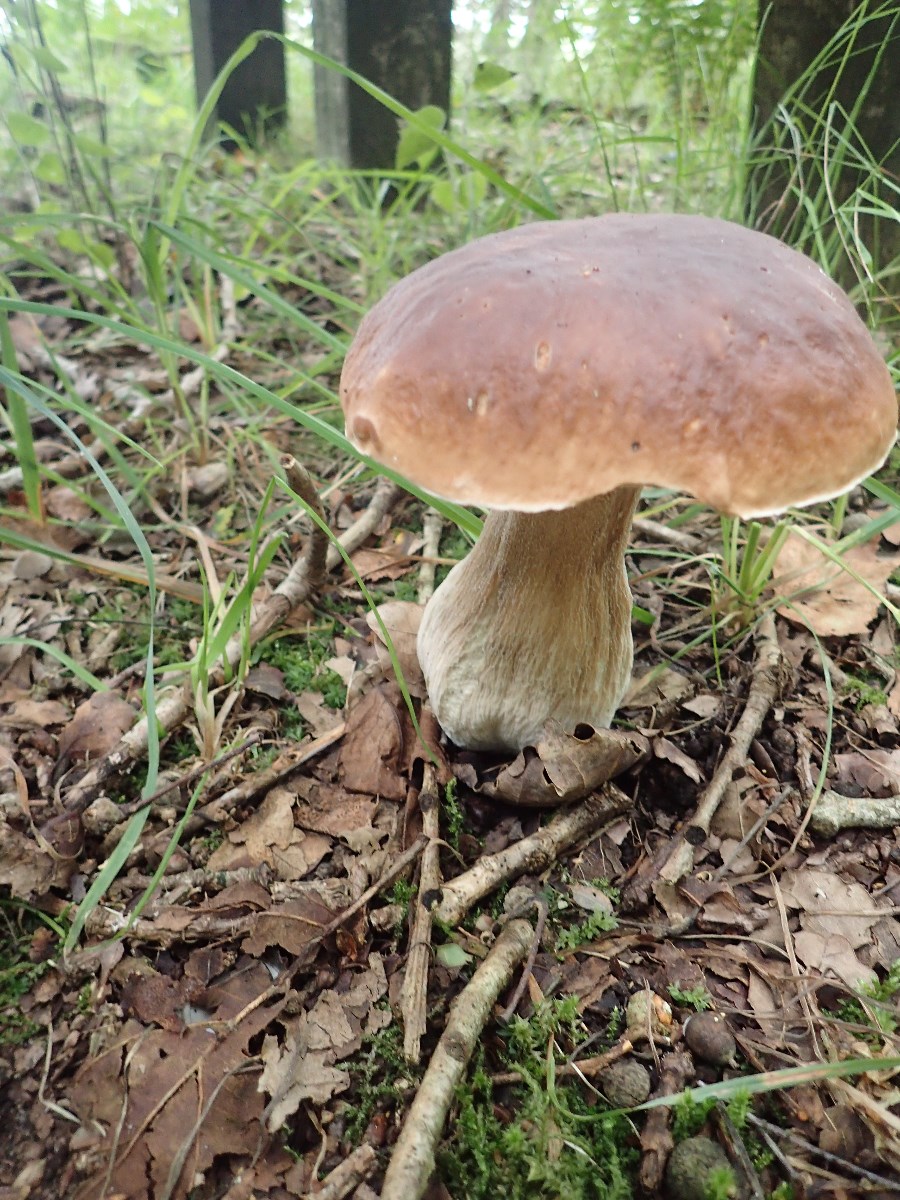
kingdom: Fungi
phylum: Basidiomycota
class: Agaricomycetes
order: Boletales
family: Boletaceae
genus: Boletus
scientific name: Boletus edulis
